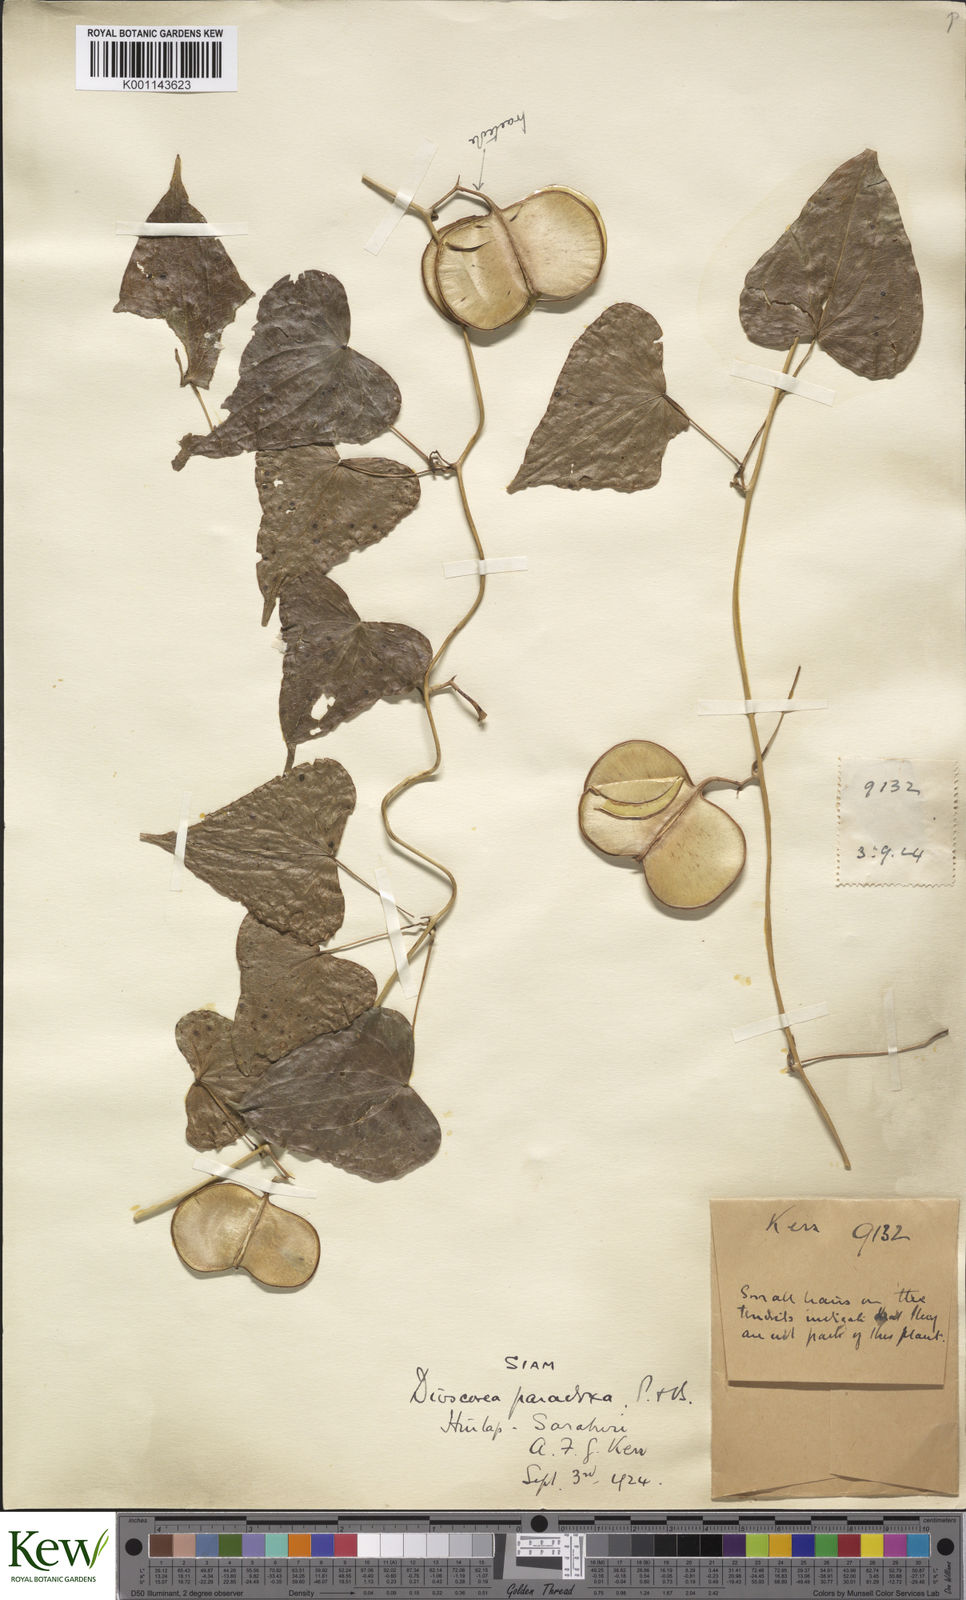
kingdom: Plantae
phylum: Tracheophyta
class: Liliopsida
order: Dioscoreales
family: Dioscoreaceae
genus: Dioscorea
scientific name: Dioscorea paradoxa
